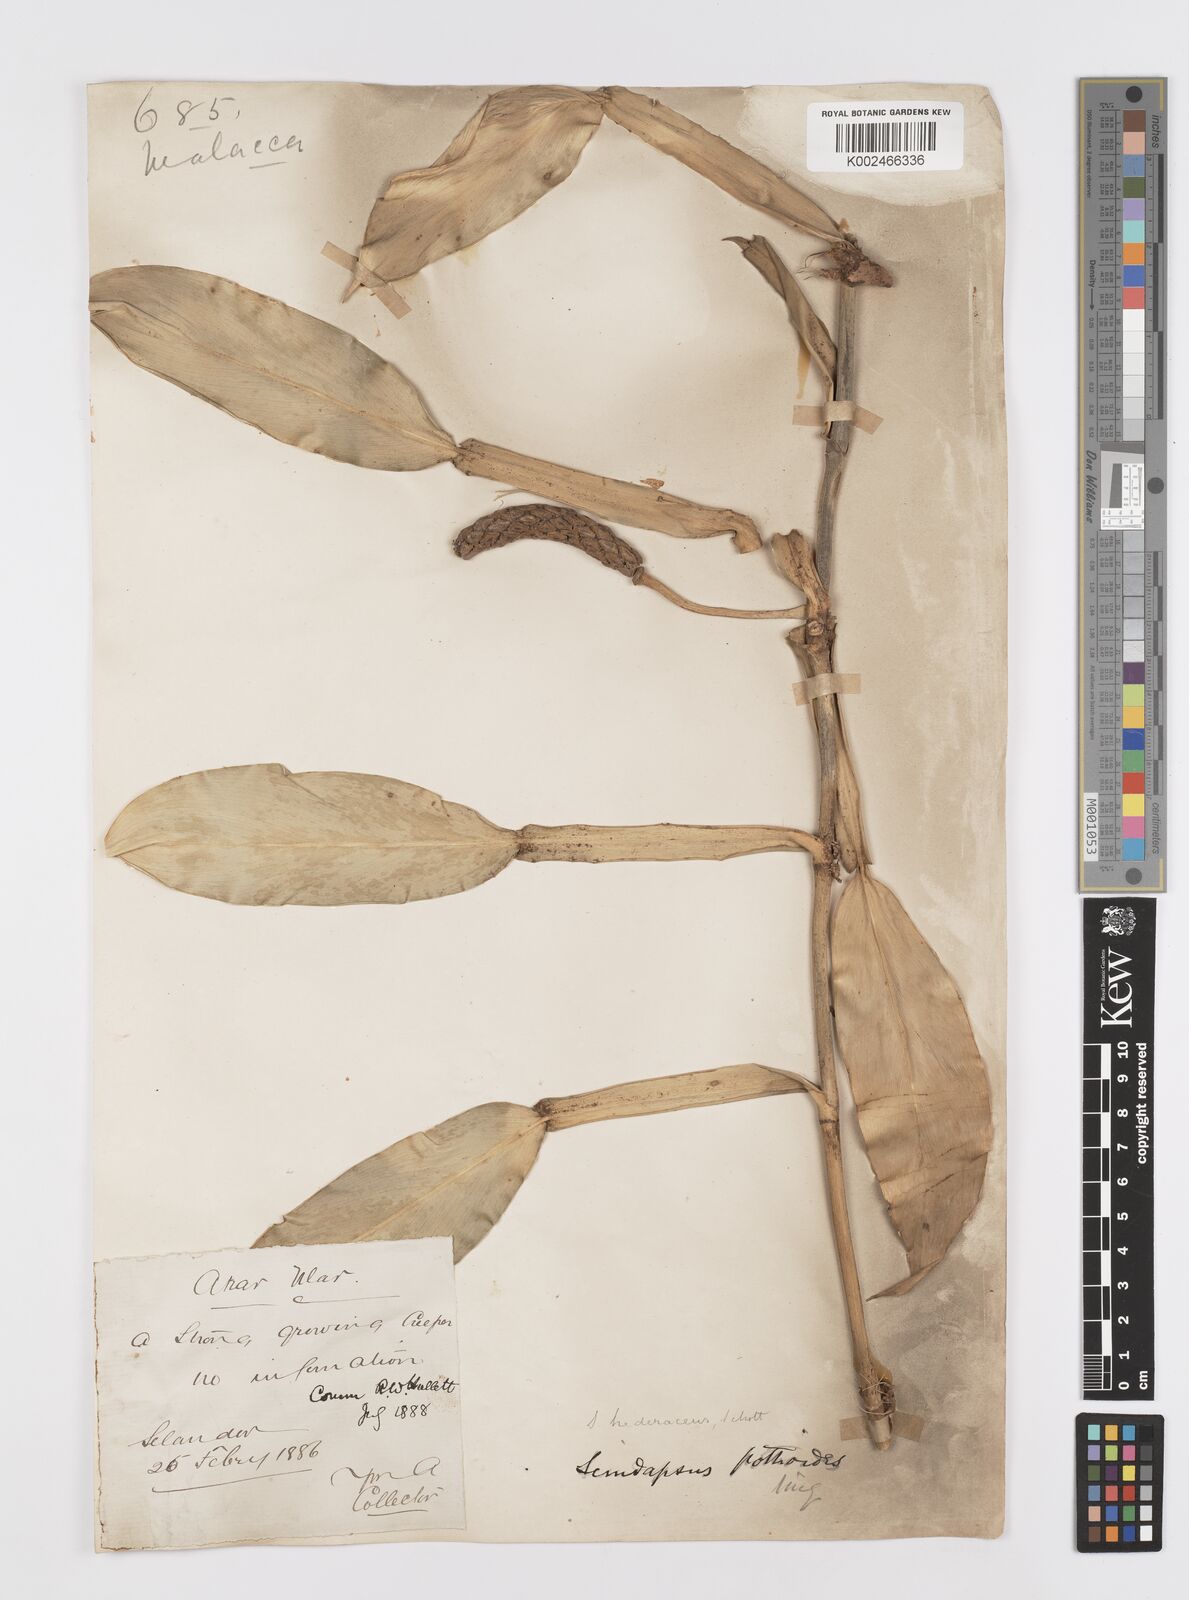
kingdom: Plantae
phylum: Tracheophyta
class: Liliopsida
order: Alismatales
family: Araceae
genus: Scindapsus
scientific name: Scindapsus hederaceus
